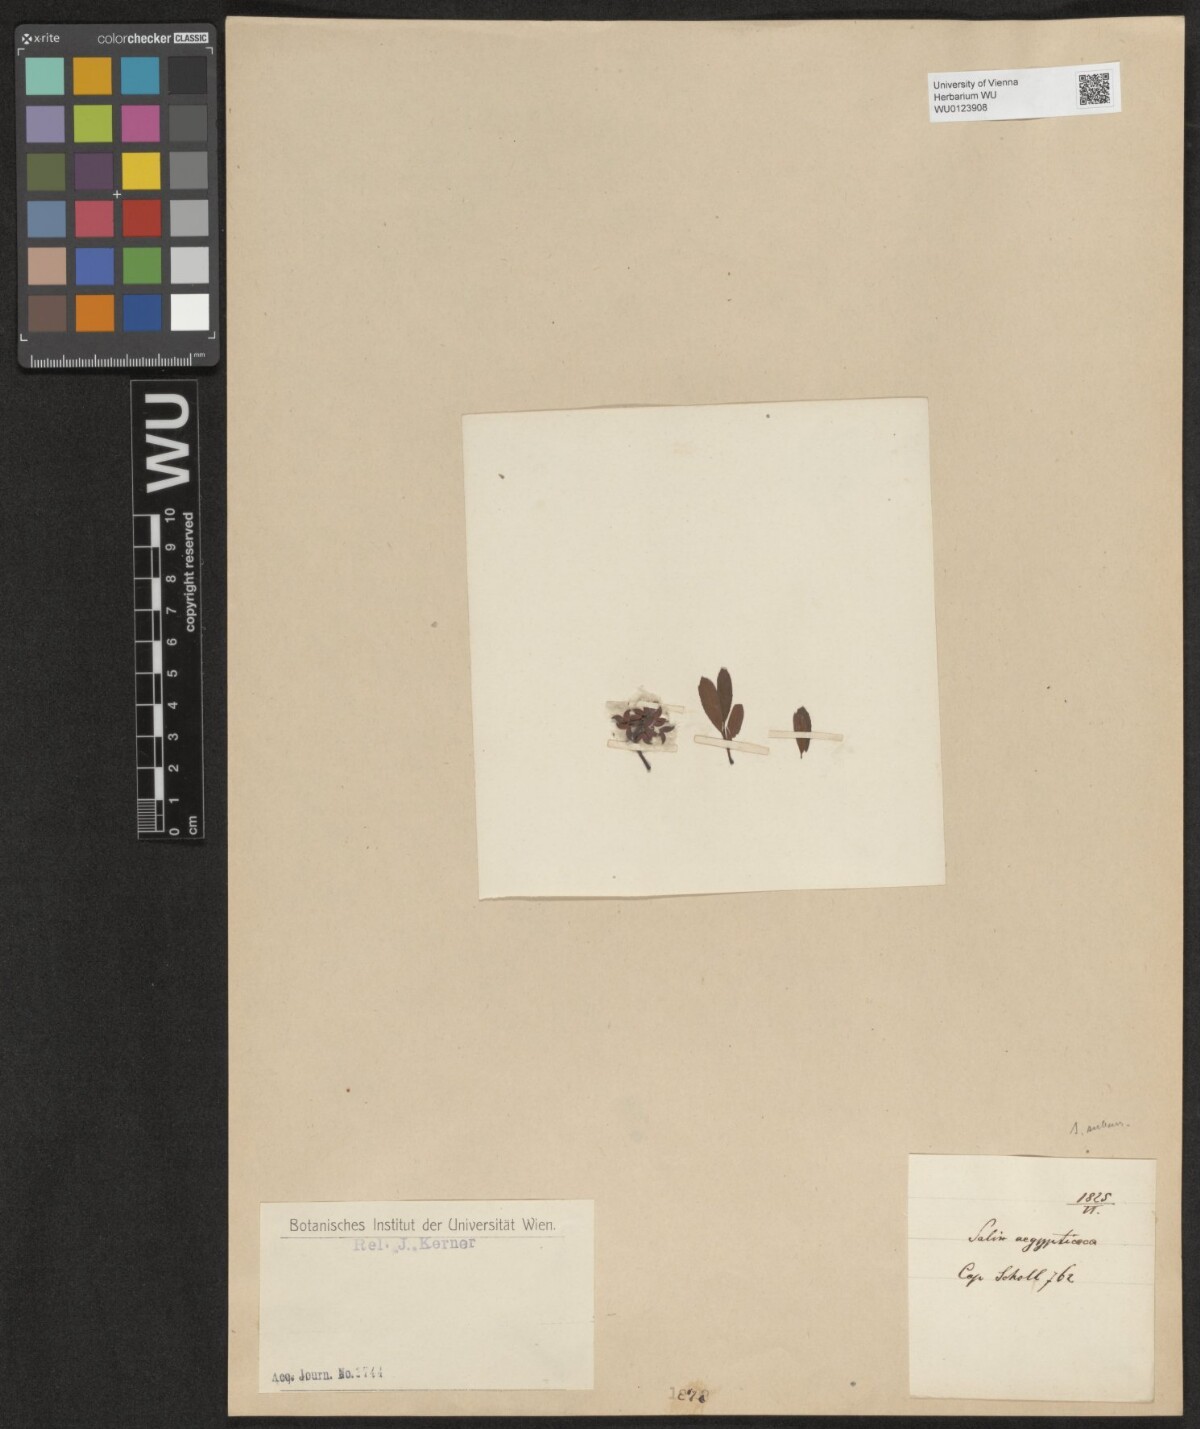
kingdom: Plantae
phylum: Tracheophyta
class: Magnoliopsida
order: Malpighiales
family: Salicaceae
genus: Salix
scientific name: Salix aegyptiaca
